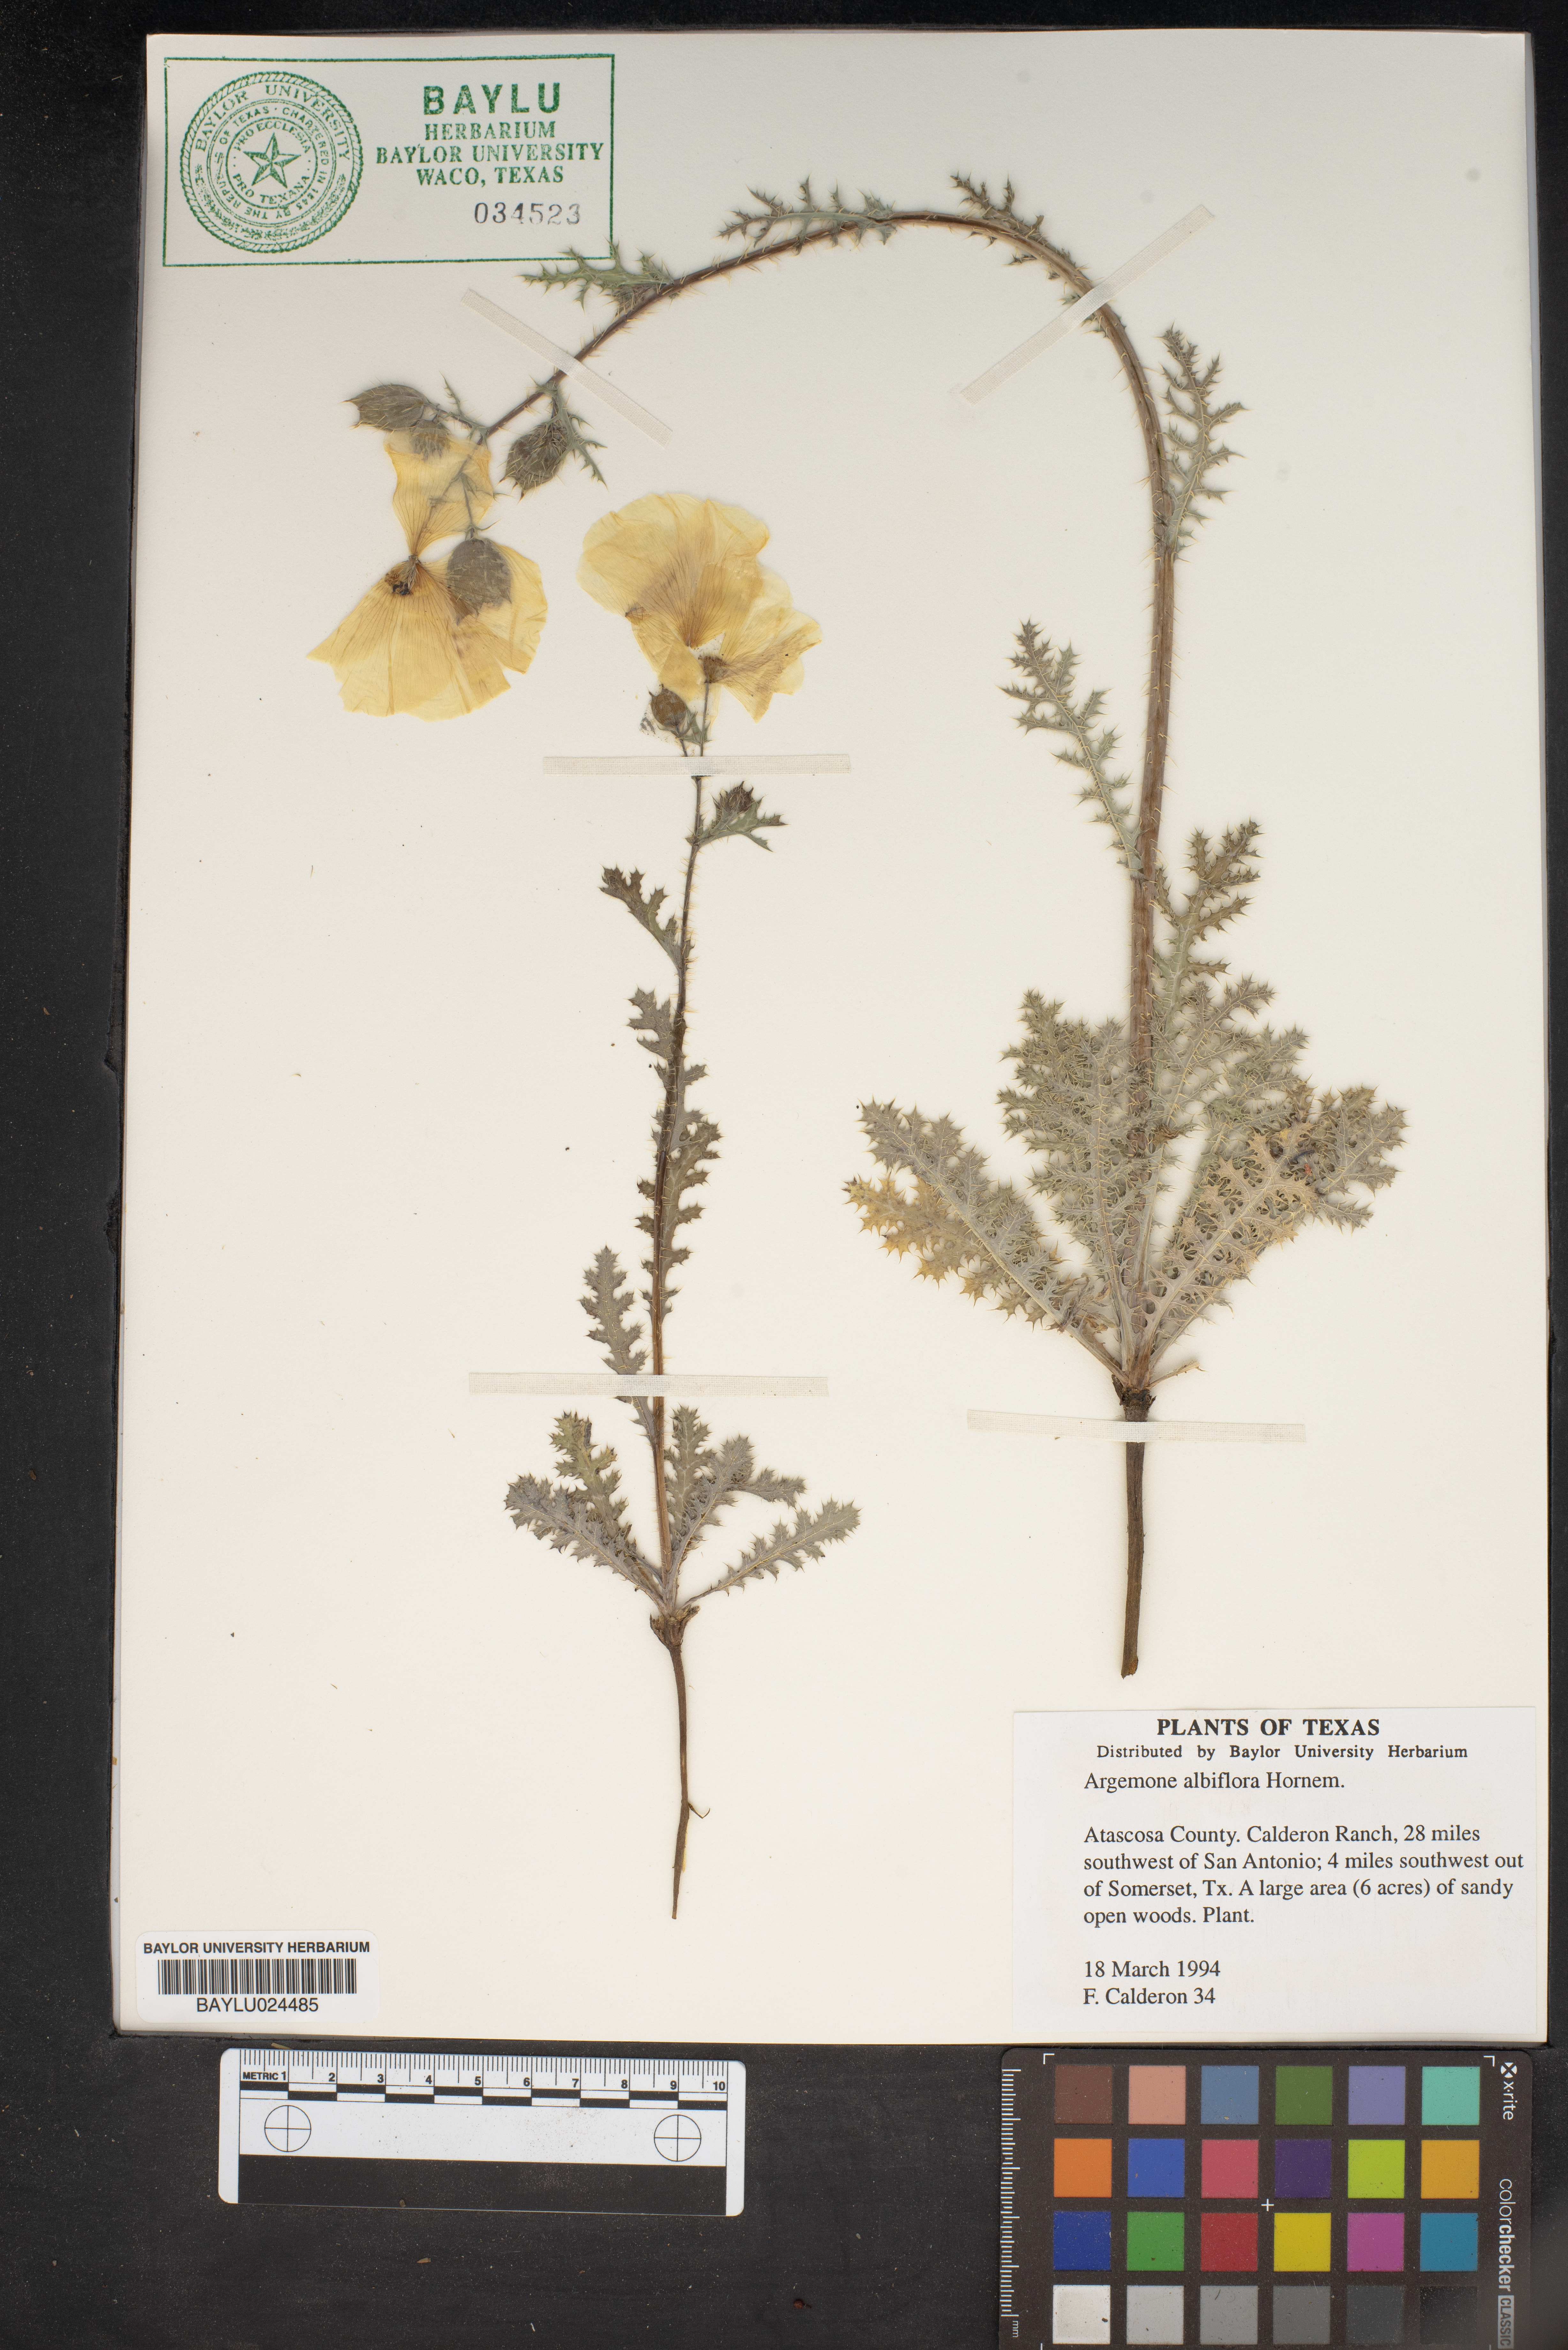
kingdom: Plantae
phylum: Tracheophyta
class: Magnoliopsida
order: Ranunculales
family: Papaveraceae
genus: Argemone
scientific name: Argemone albiflora
